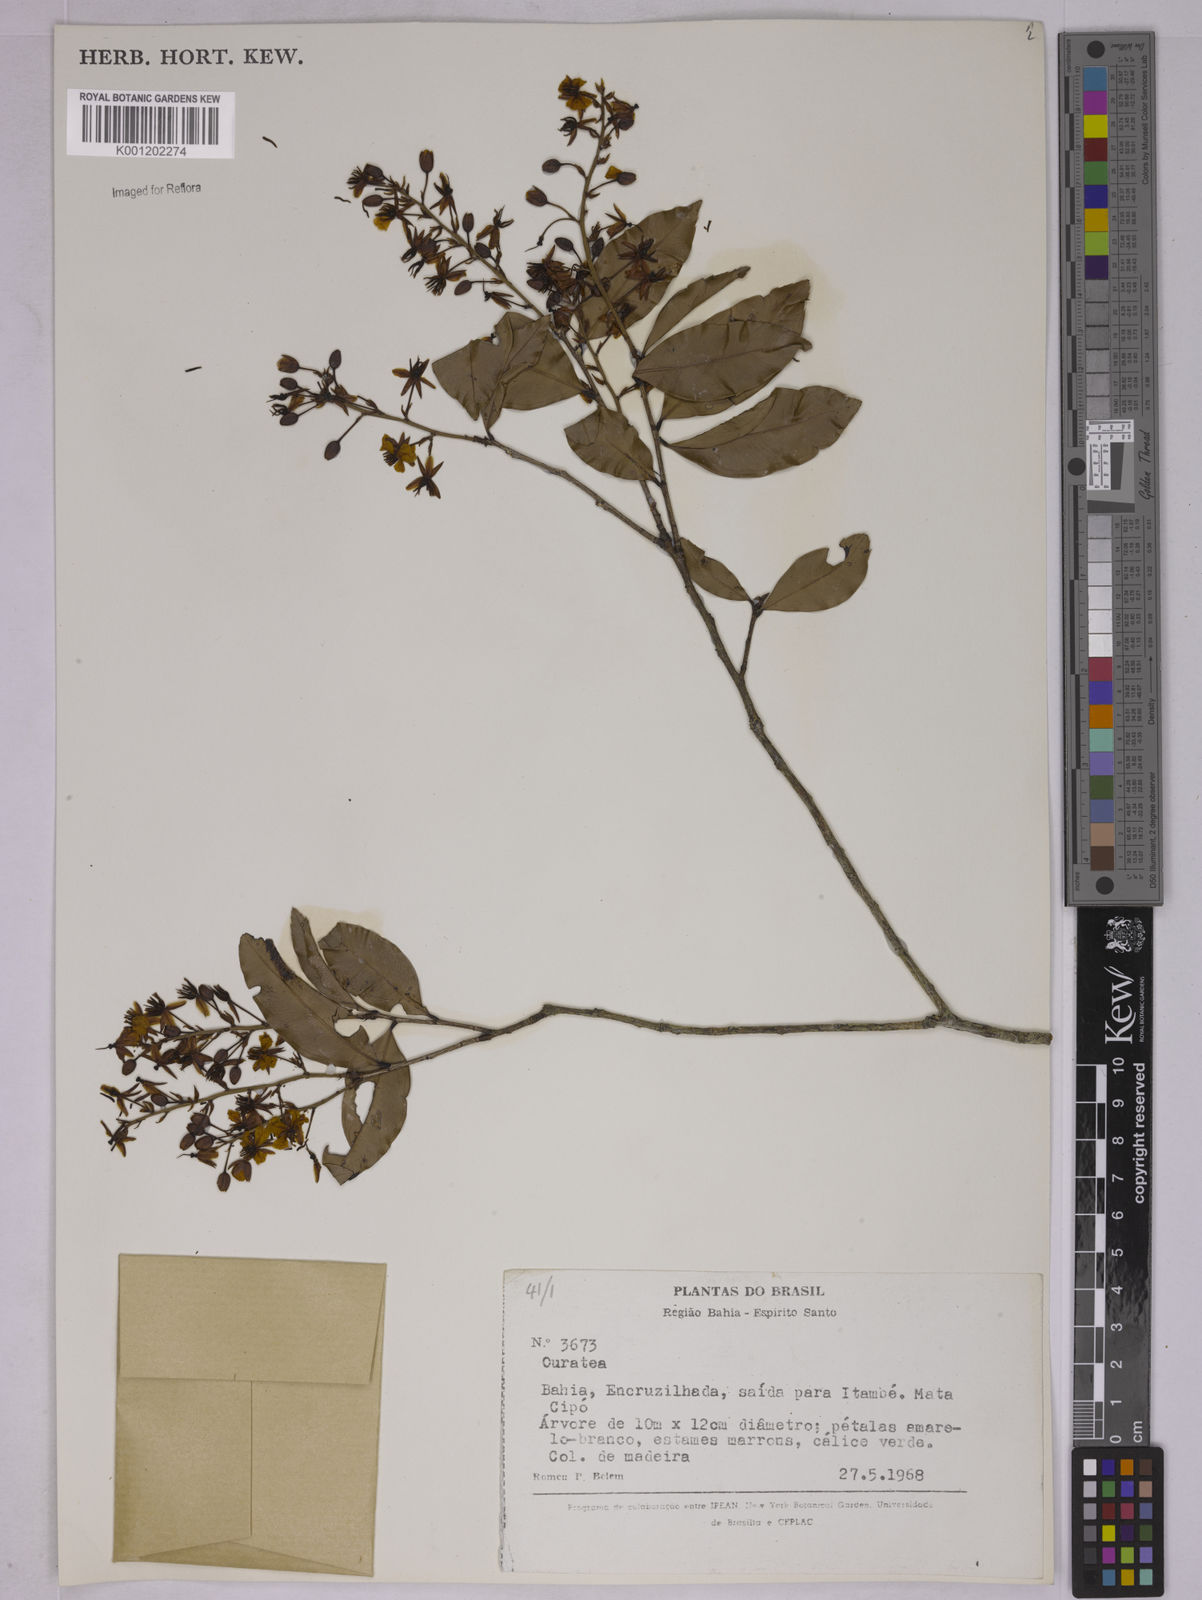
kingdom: Plantae
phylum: Tracheophyta
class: Magnoliopsida
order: Malpighiales
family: Ochnaceae
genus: Ouratea
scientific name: Ouratea
